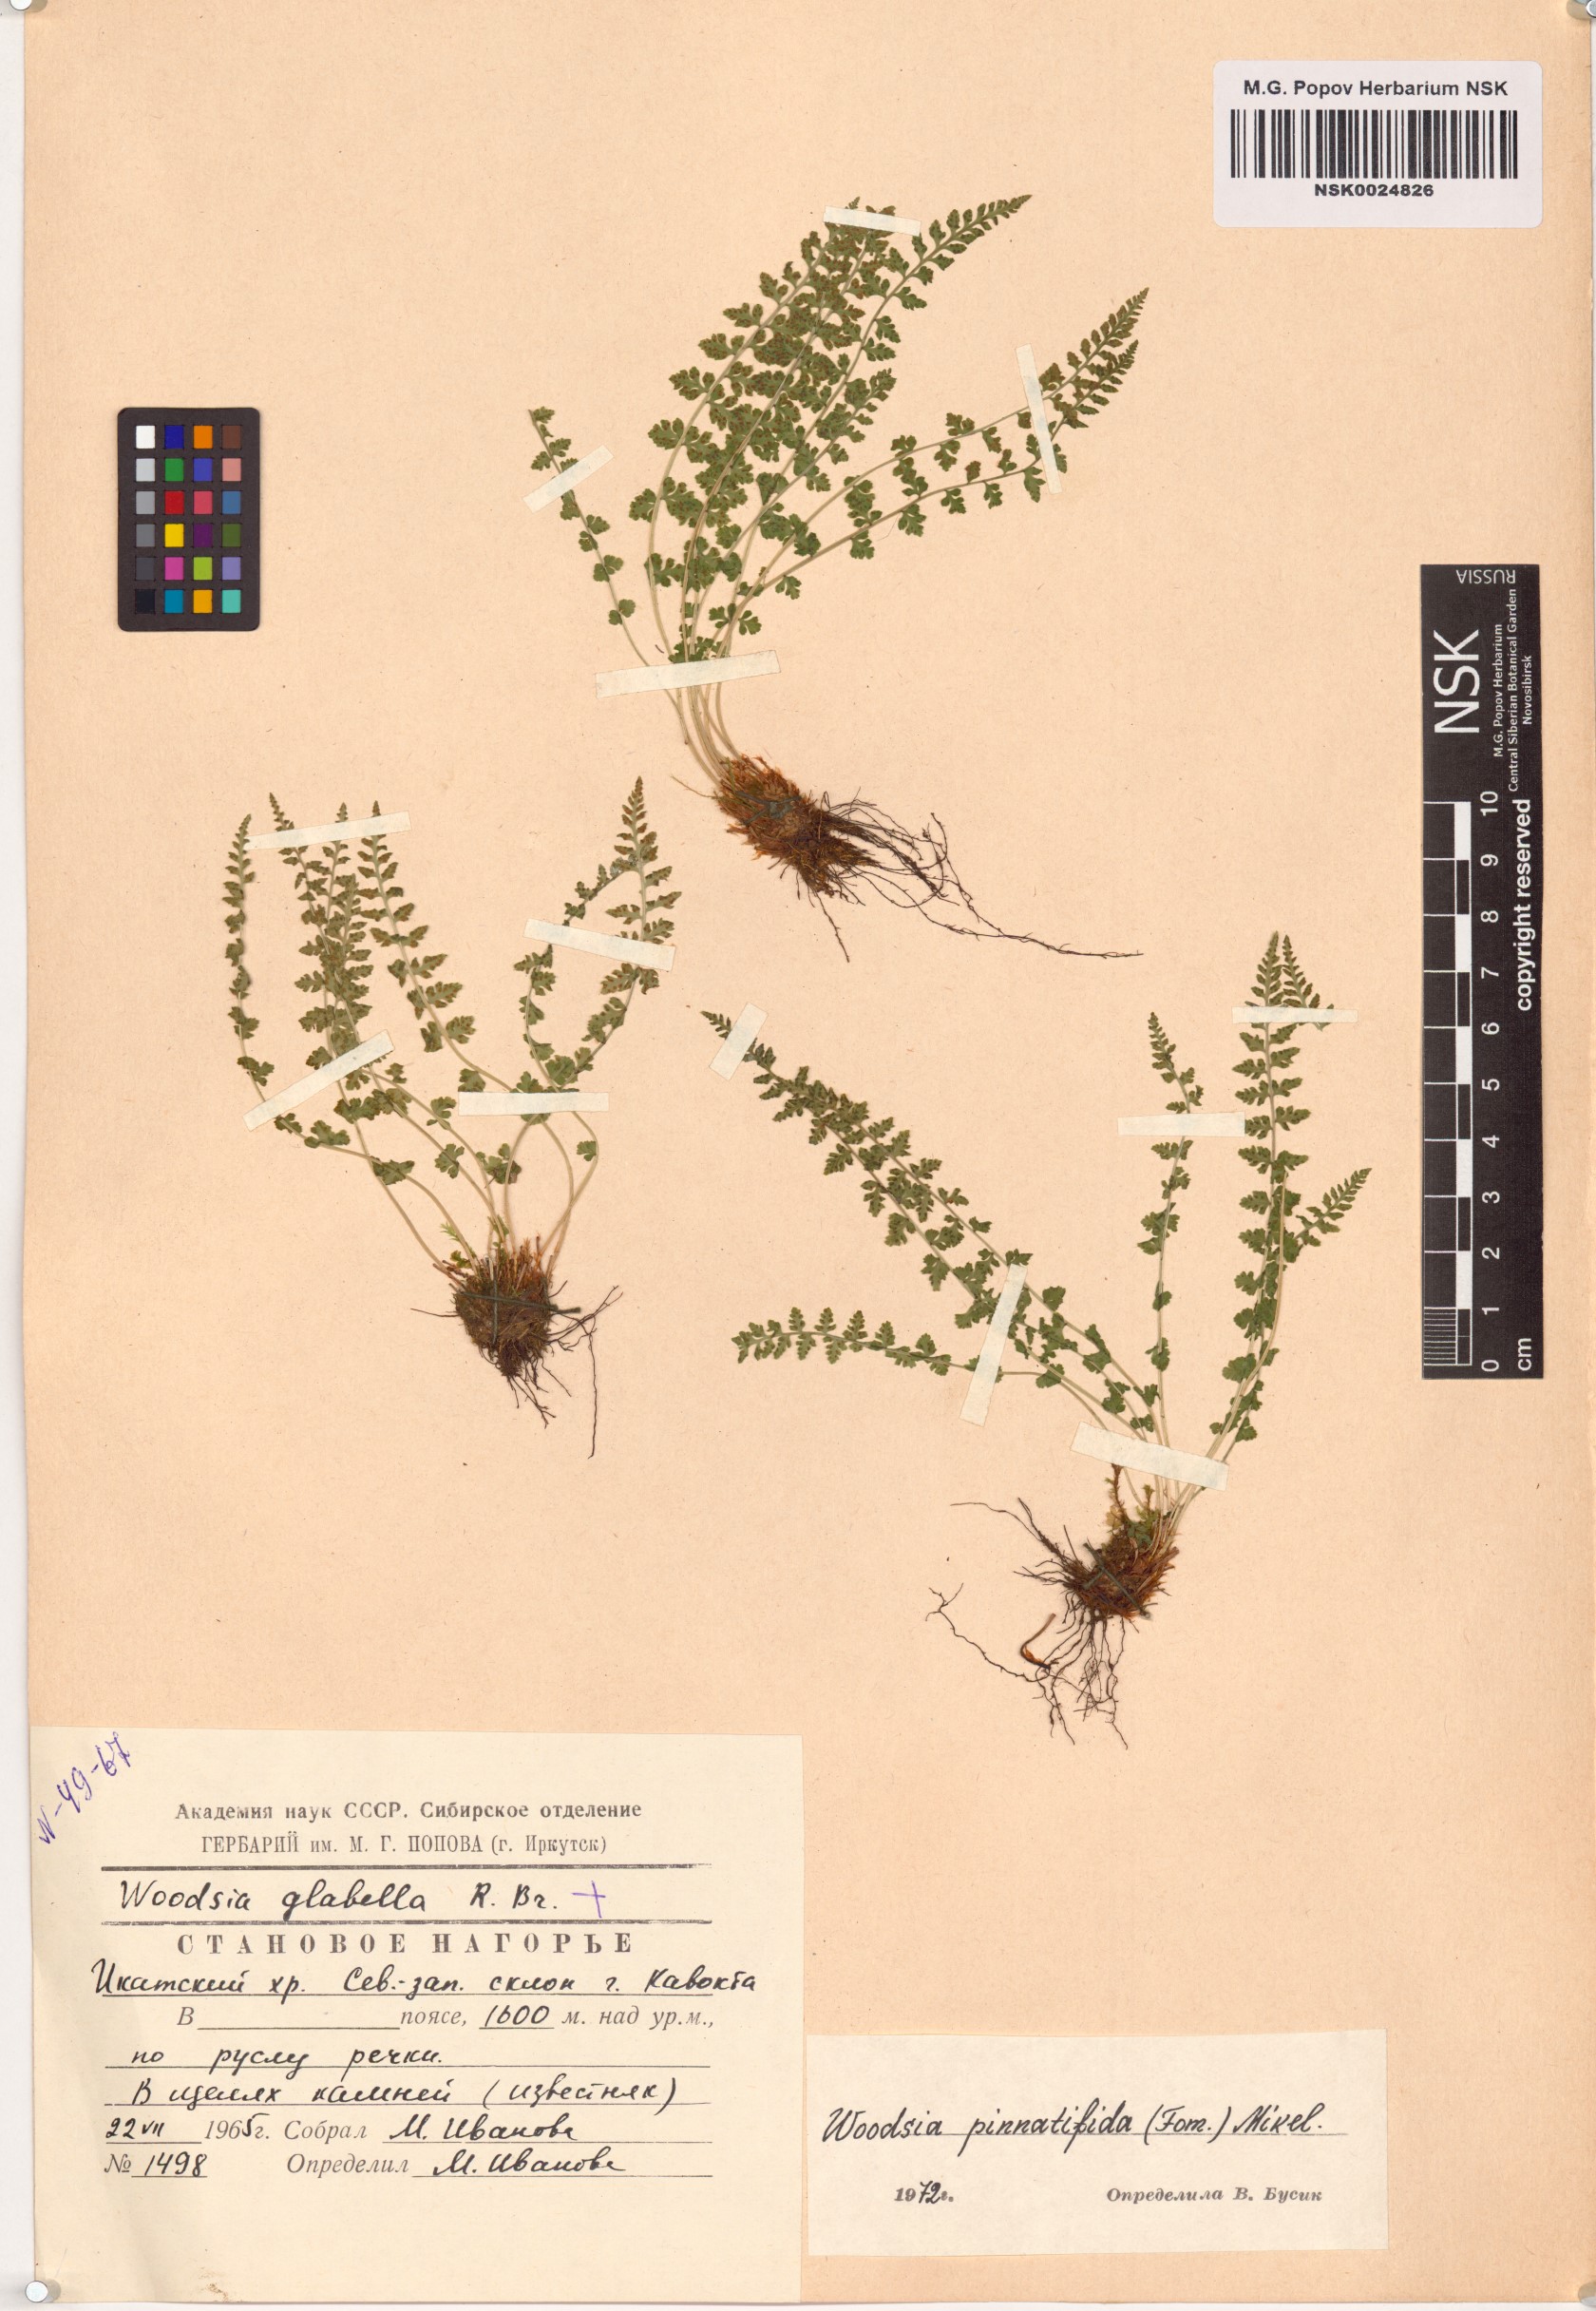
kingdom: Plantae
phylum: Tracheophyta
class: Polypodiopsida
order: Polypodiales
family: Woodsiaceae
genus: Woodsia
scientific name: Woodsia pulchella
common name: Graceful woodsia
